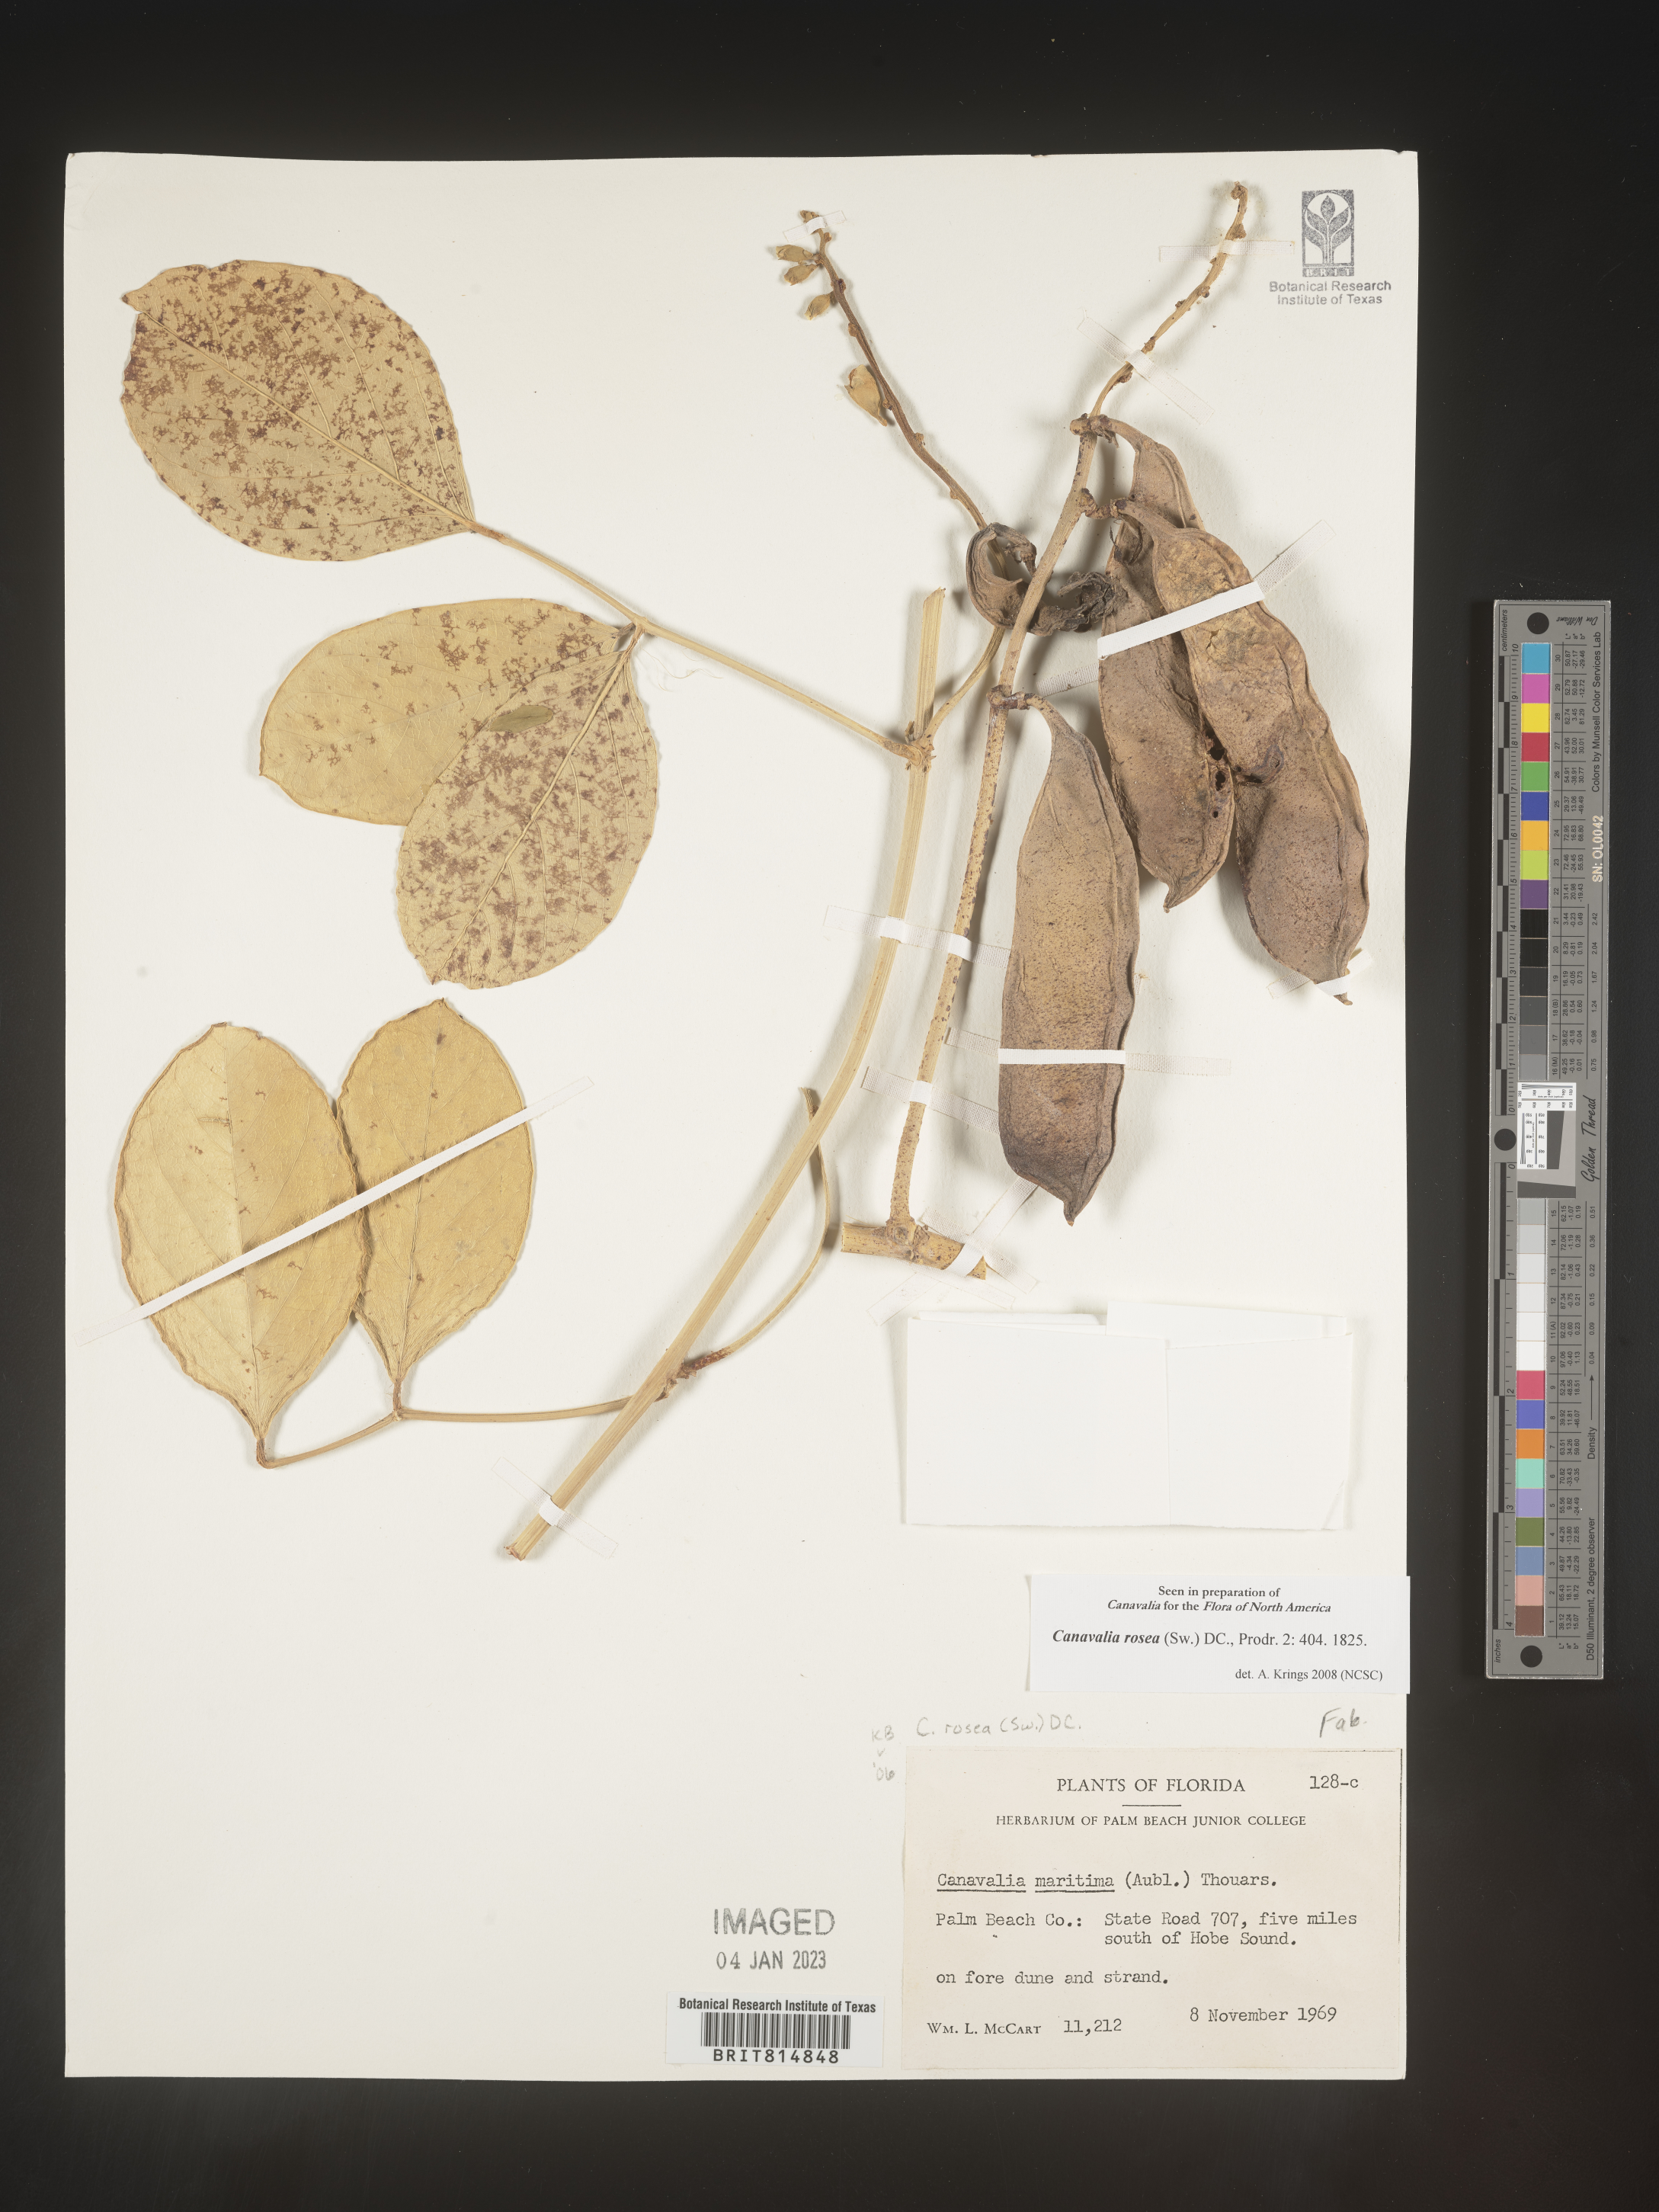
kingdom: Plantae
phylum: Tracheophyta
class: Magnoliopsida
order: Fabales
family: Fabaceae
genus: Canavalia
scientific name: Canavalia
